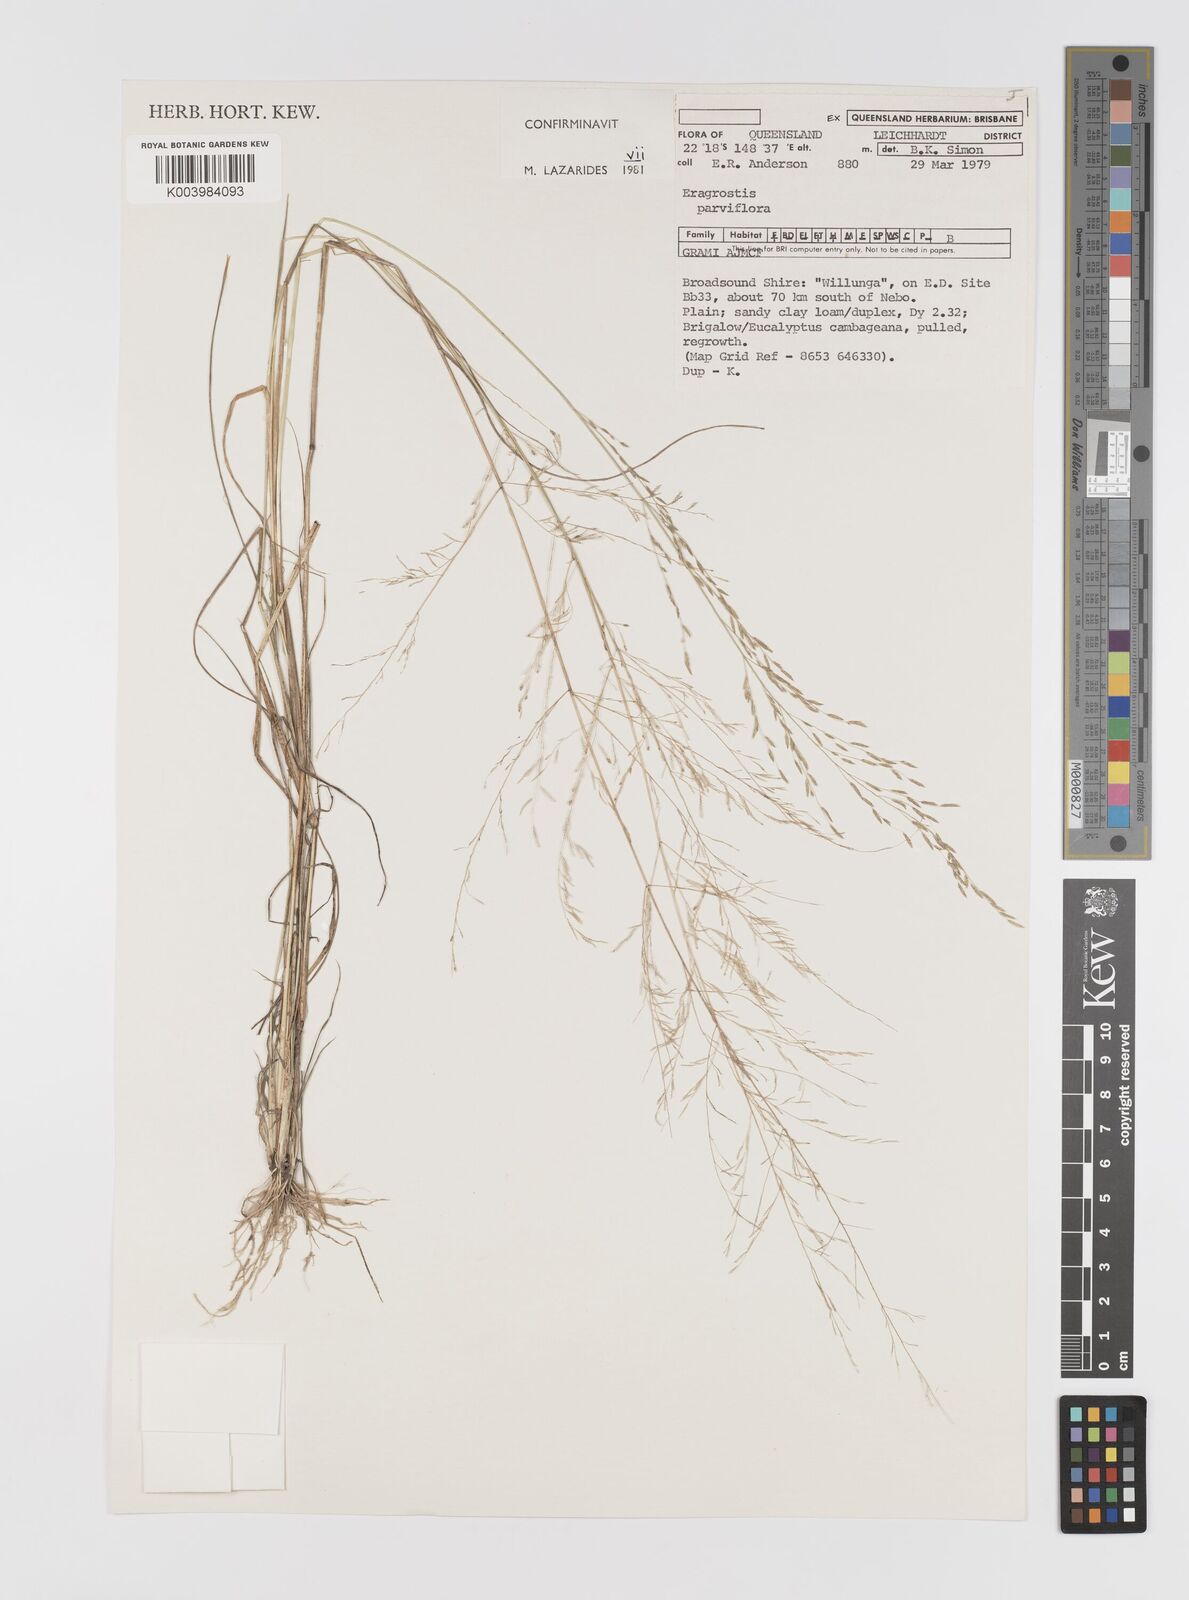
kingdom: Plantae
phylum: Tracheophyta
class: Liliopsida
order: Poales
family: Poaceae
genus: Eragrostis
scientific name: Eragrostis parviflora
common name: Weeping love-grass
